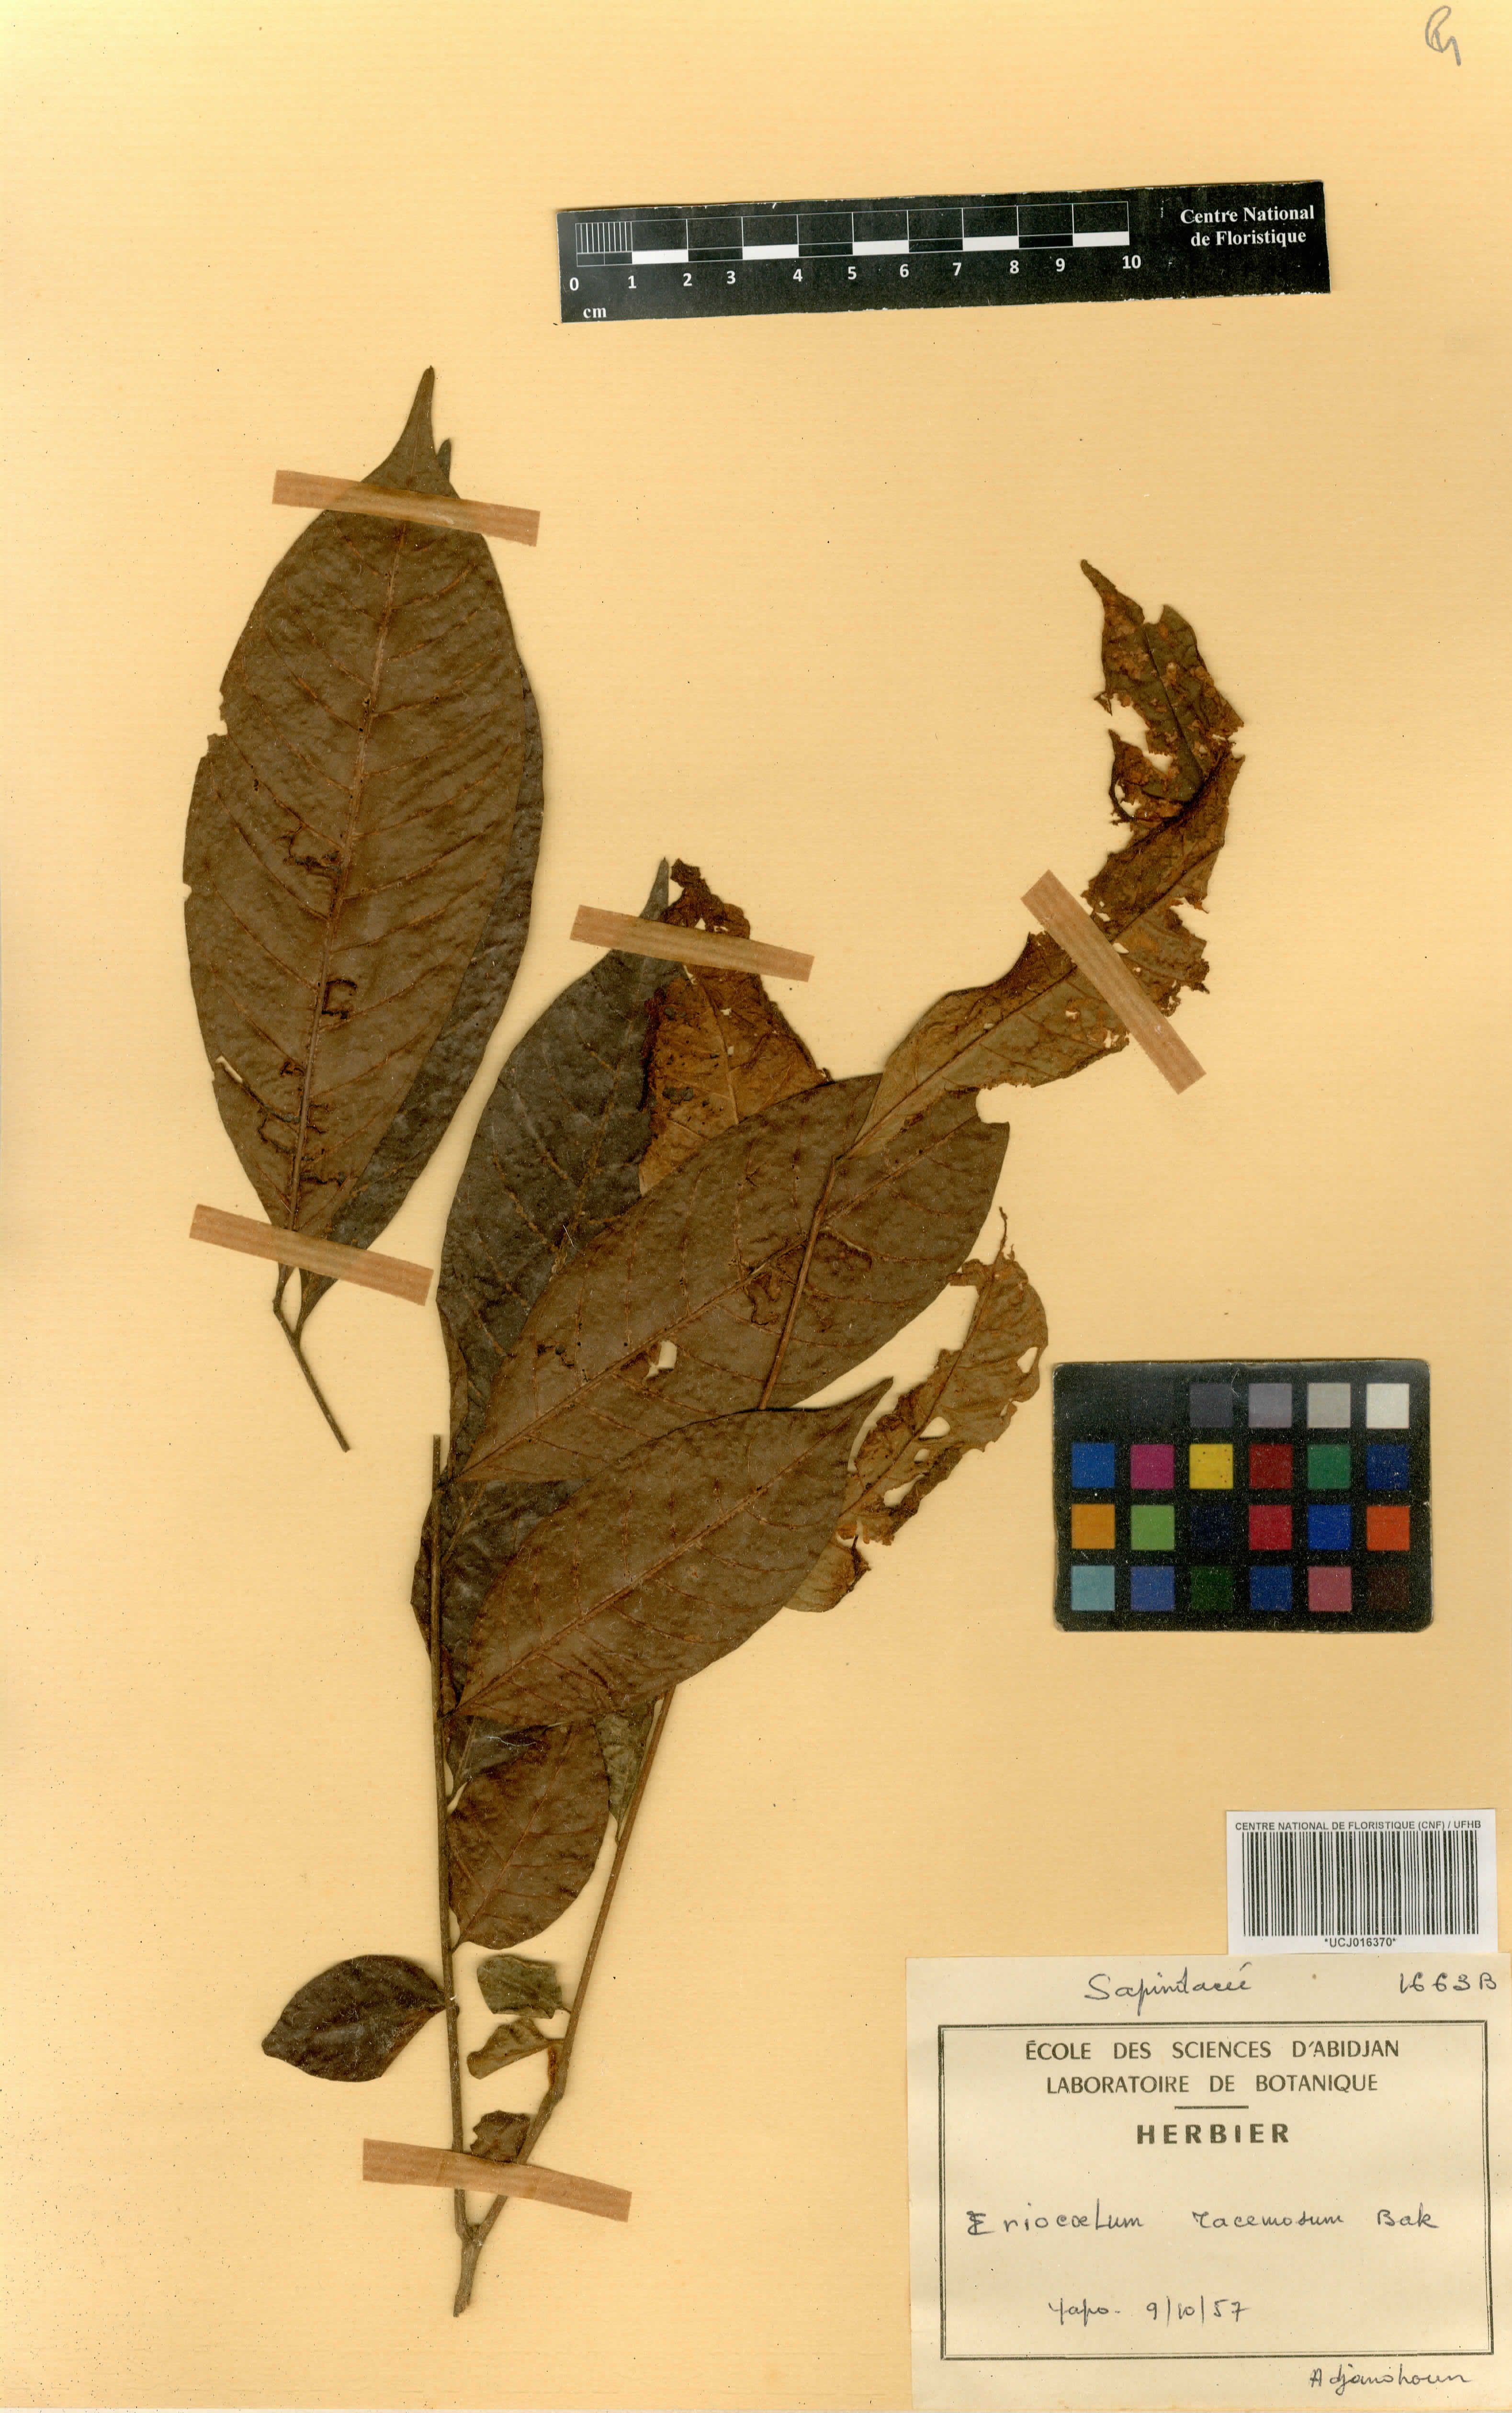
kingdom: Plantae
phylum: Tracheophyta
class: Magnoliopsida
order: Sapindales
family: Sapindaceae
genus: Eriocoelum
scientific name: Eriocoelum racemosum
